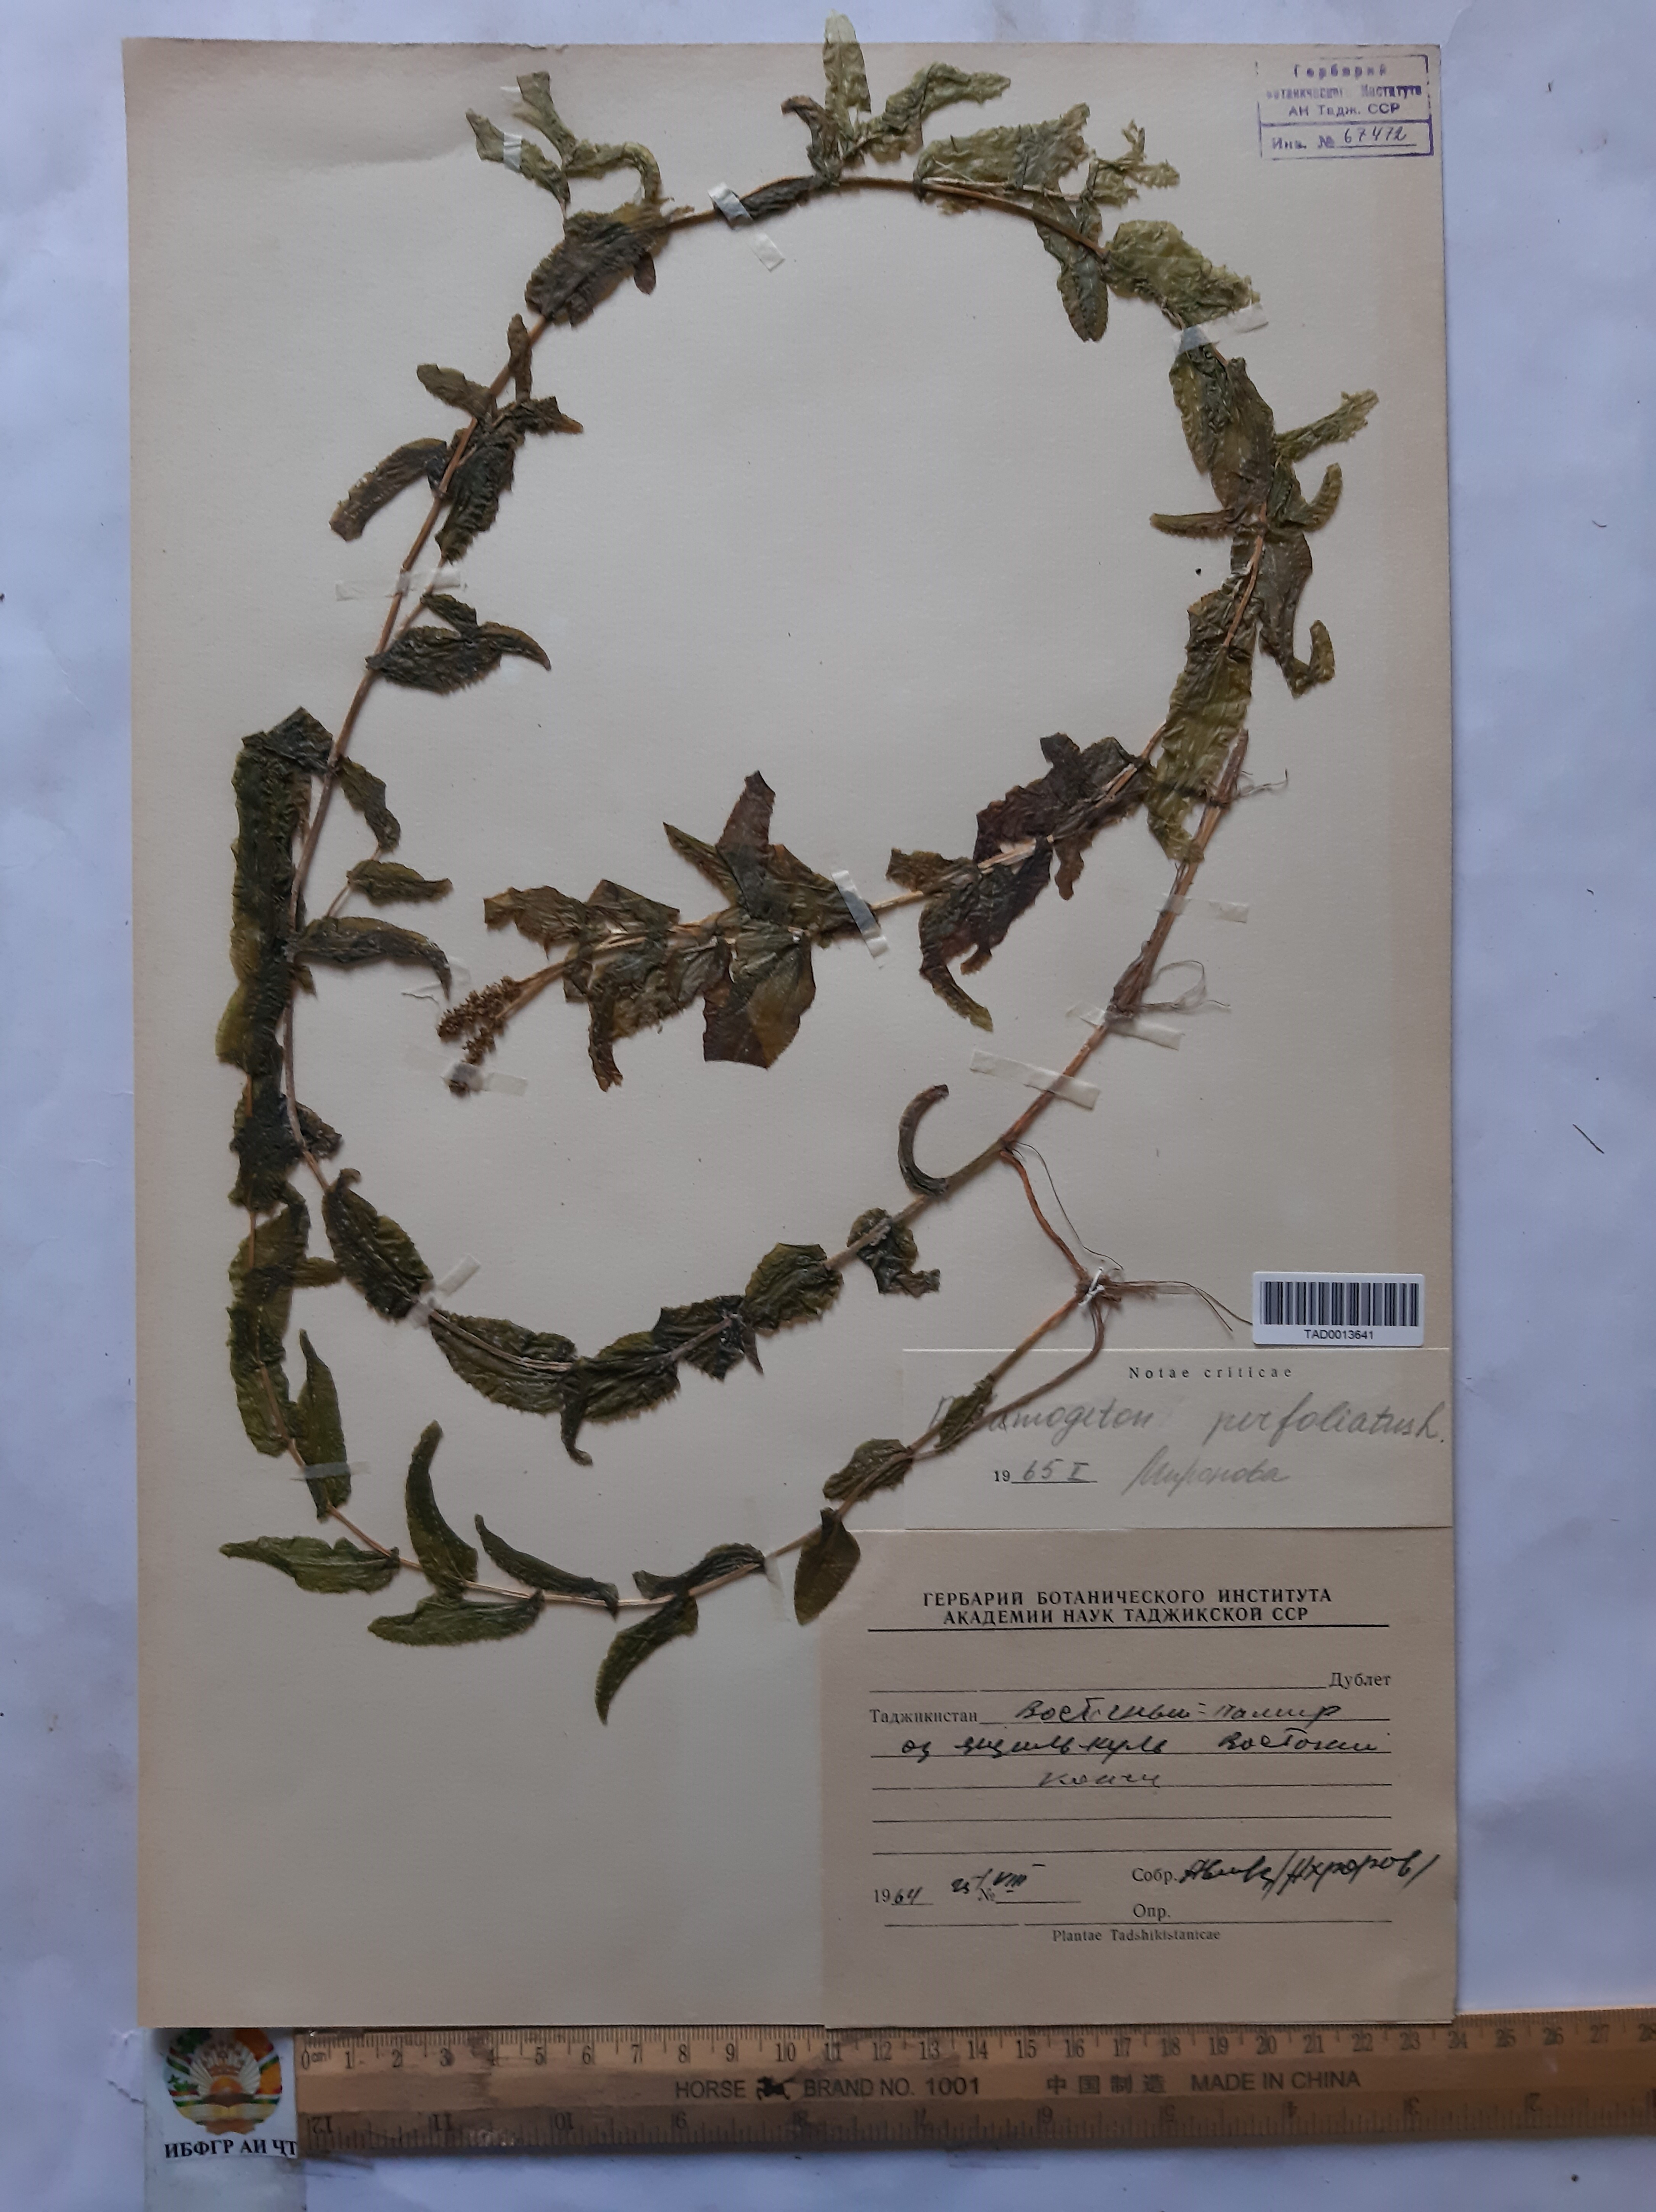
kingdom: Plantae
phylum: Tracheophyta
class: Liliopsida
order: Alismatales
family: Potamogetonaceae
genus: Potamogeton
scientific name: Potamogeton perfoliatus
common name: Perfoliate pondweed
